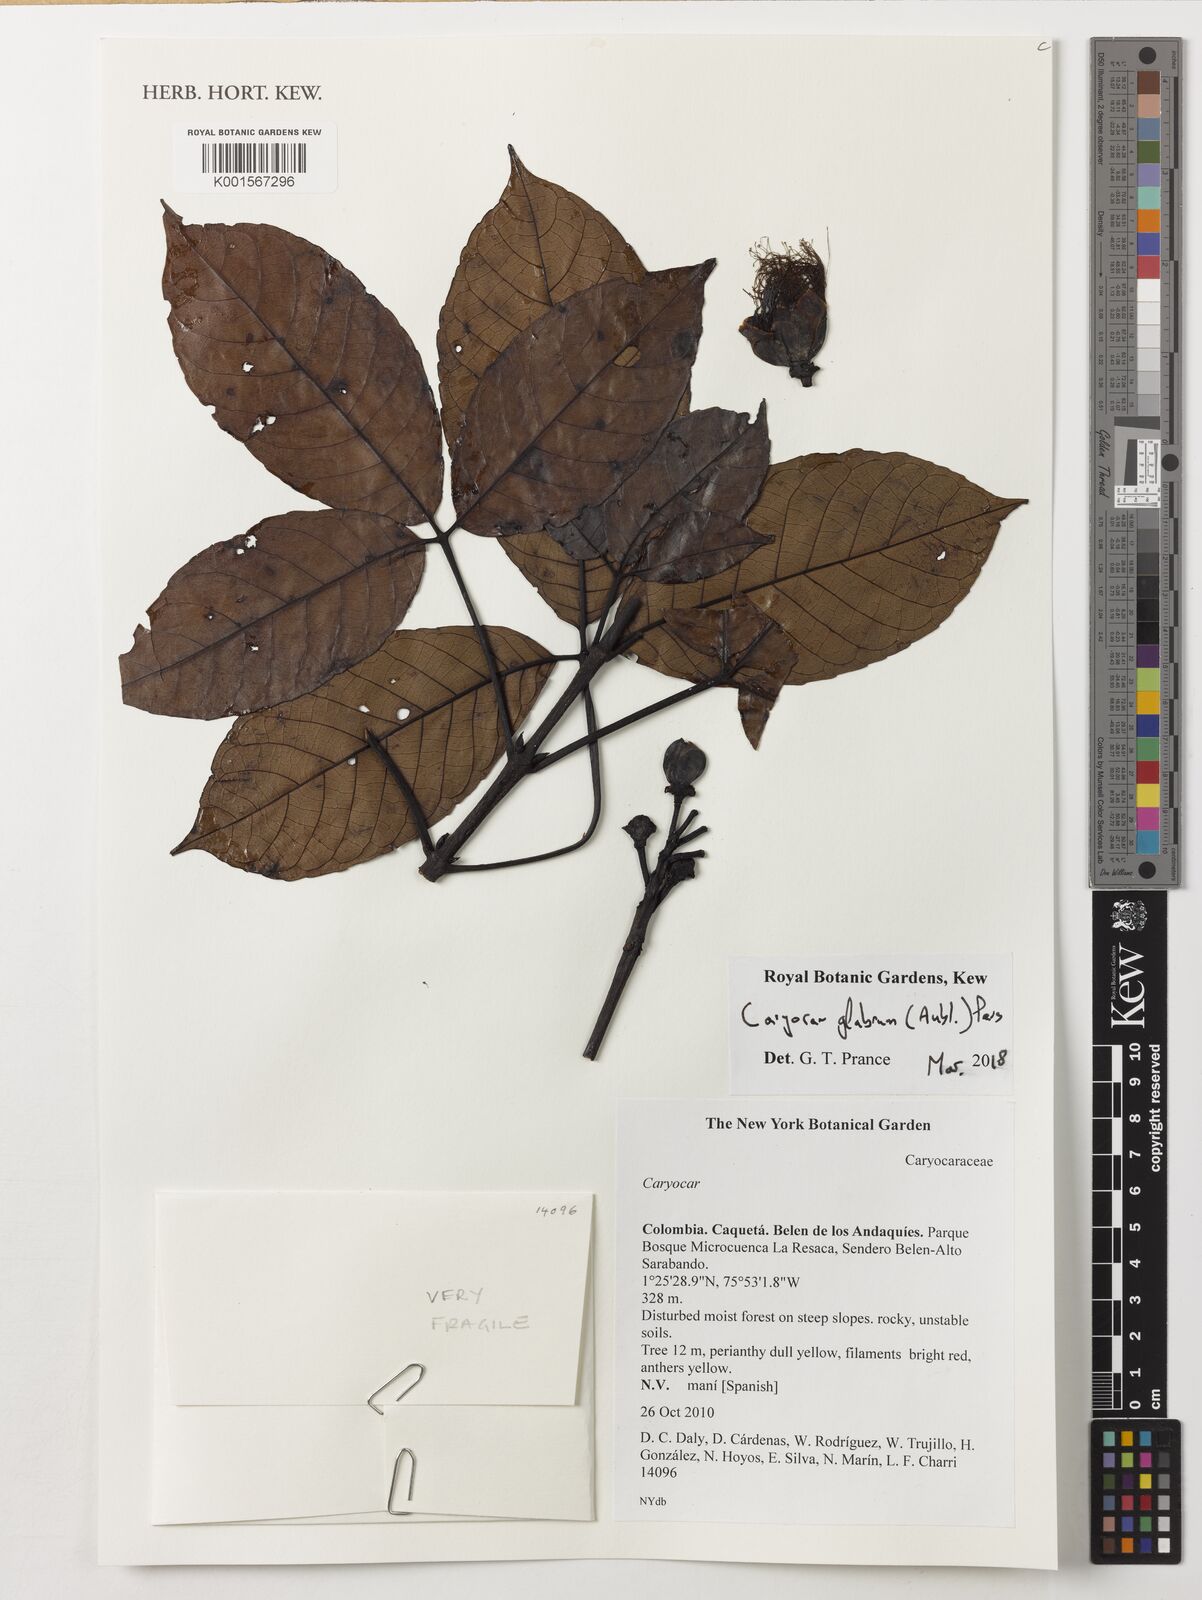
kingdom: Plantae
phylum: Tracheophyta
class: Magnoliopsida
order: Malpighiales
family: Caryocaraceae
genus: Caryocar
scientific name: Caryocar glabrum
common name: Bat's souari
